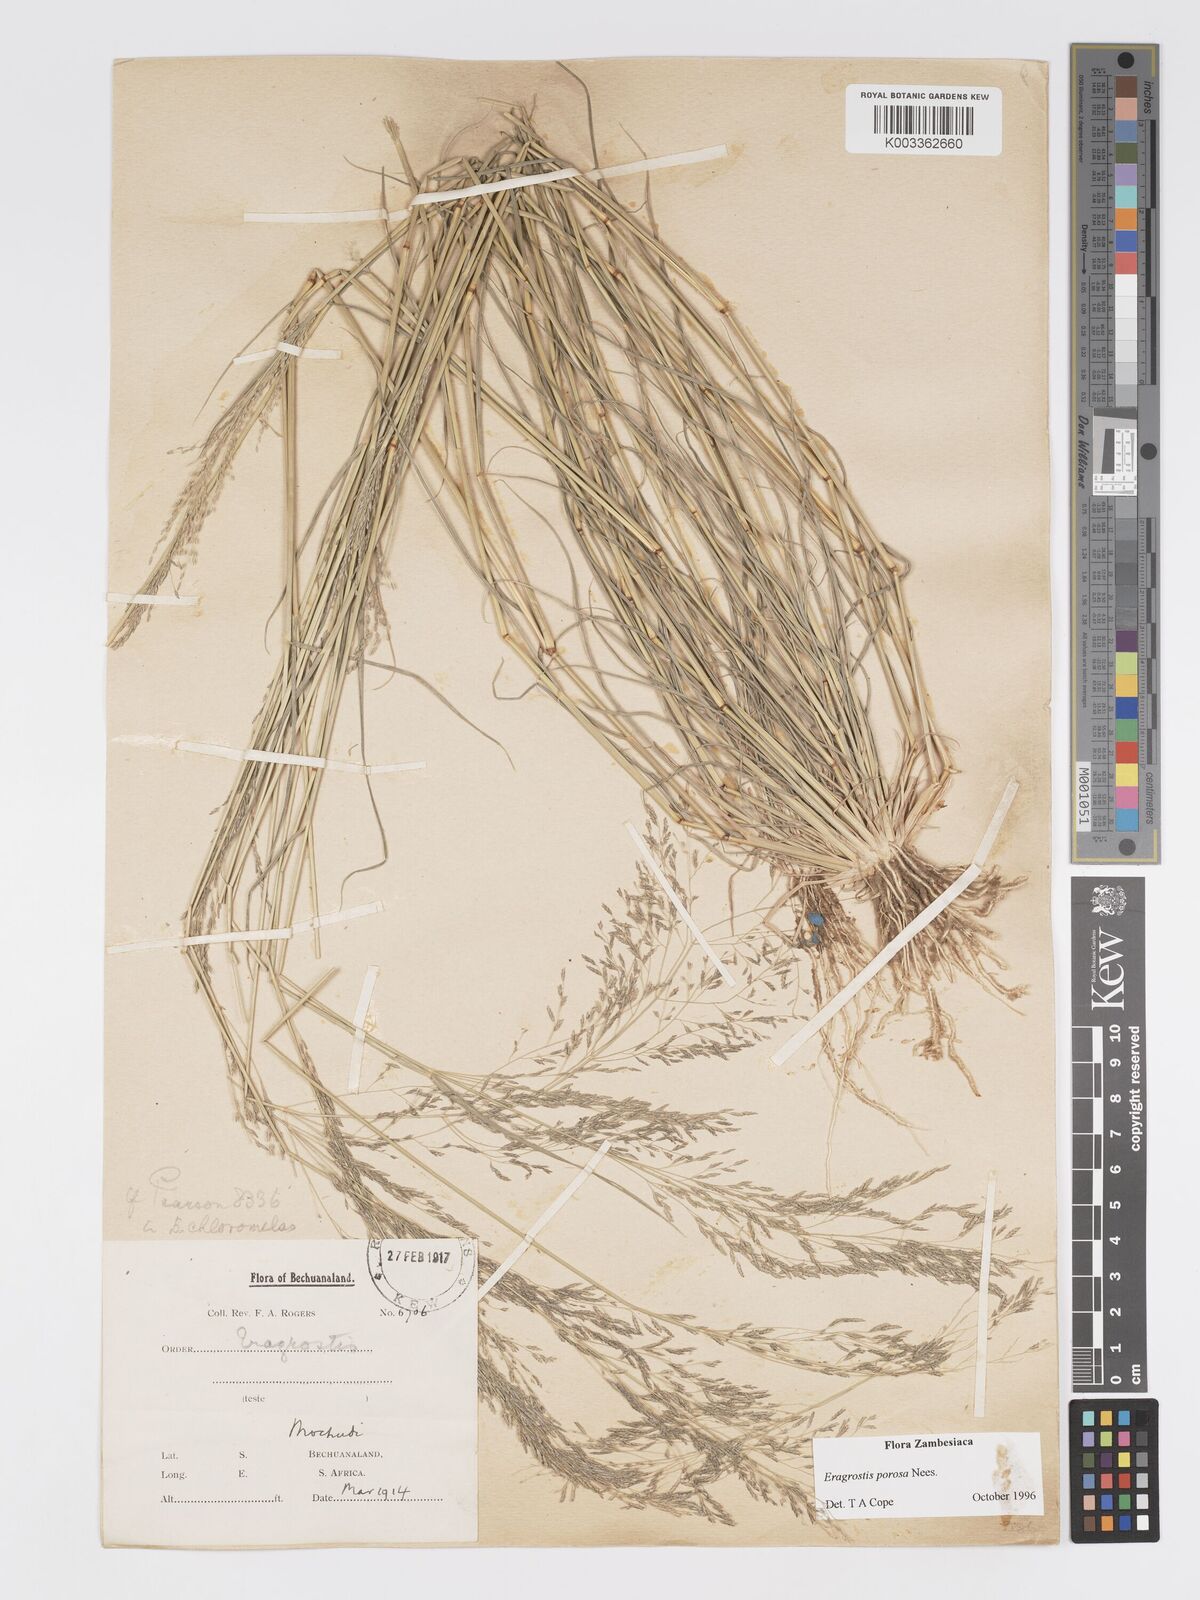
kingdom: Plantae
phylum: Tracheophyta
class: Liliopsida
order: Poales
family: Poaceae
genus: Eragrostis
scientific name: Eragrostis porosa
